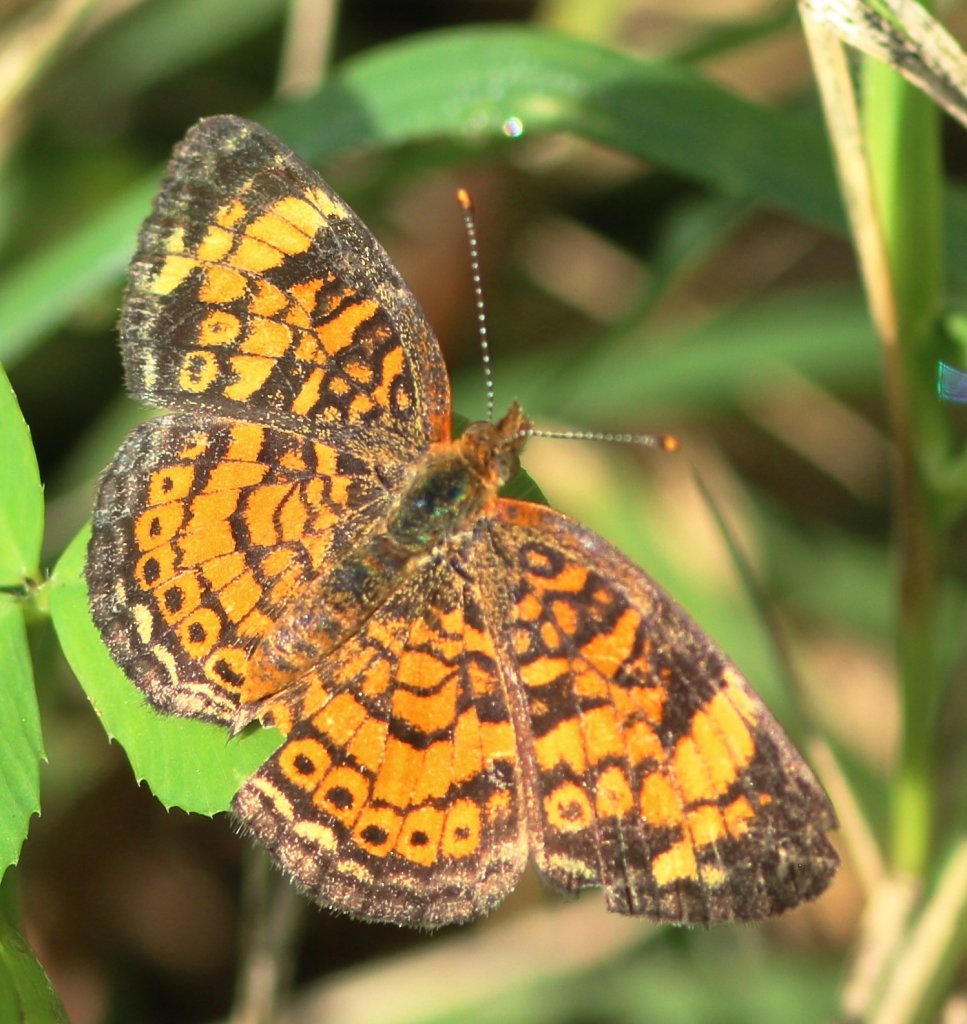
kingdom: Animalia
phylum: Arthropoda
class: Insecta
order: Lepidoptera
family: Nymphalidae
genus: Phyciodes
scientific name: Phyciodes tharos
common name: Pearl Crescent
